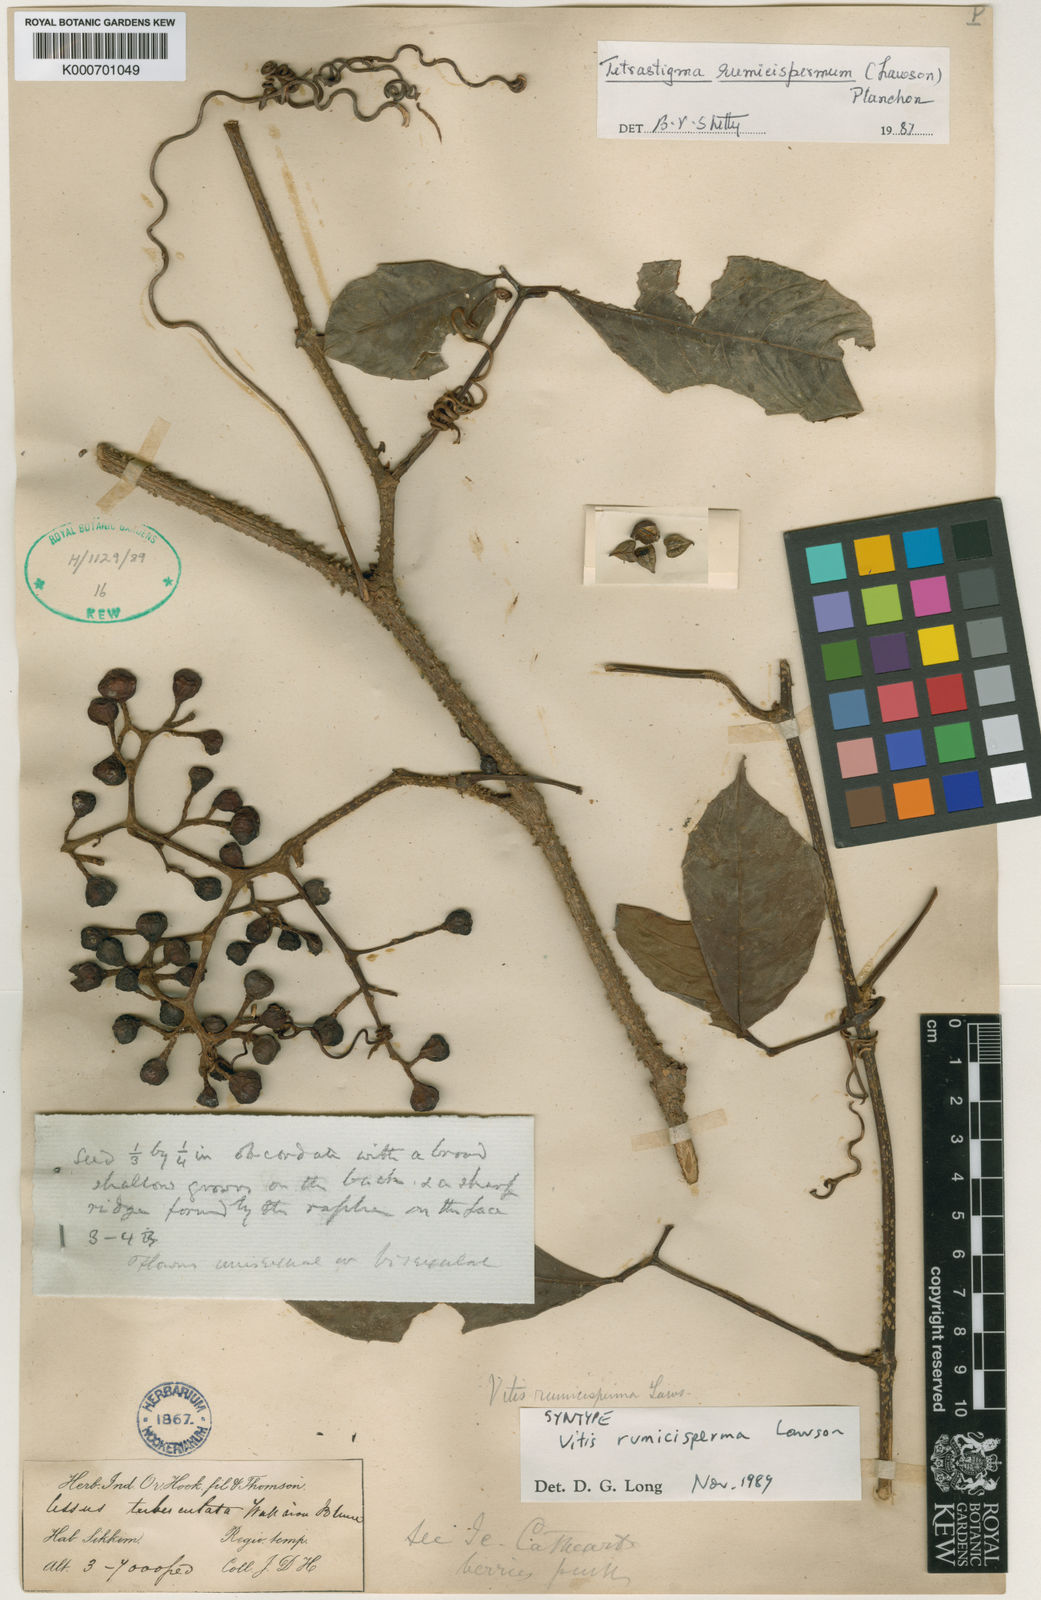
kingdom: Plantae
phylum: Tracheophyta
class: Magnoliopsida
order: Vitales
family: Vitaceae
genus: Tetrastigma
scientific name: Tetrastigma rumicispermum
